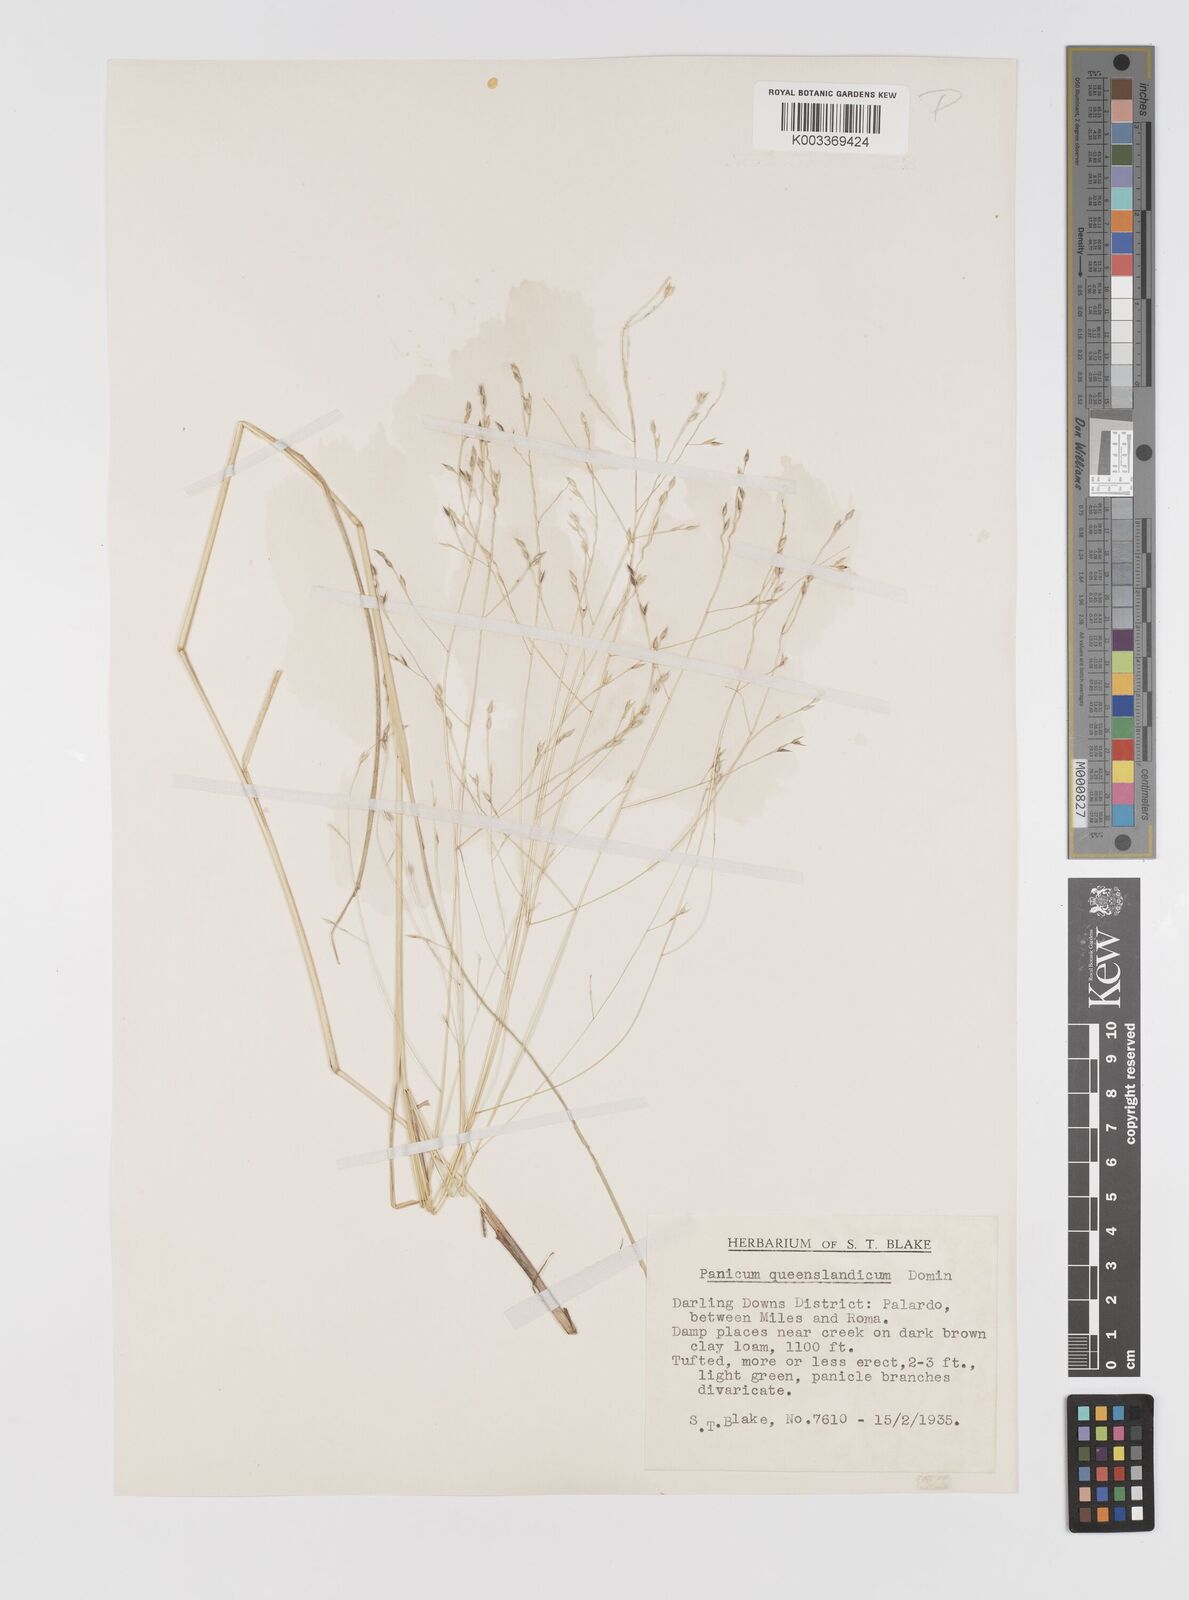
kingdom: Plantae
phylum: Tracheophyta
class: Liliopsida
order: Poales
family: Poaceae
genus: Panicum
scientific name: Panicum queenslandicum
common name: Yabila grass
